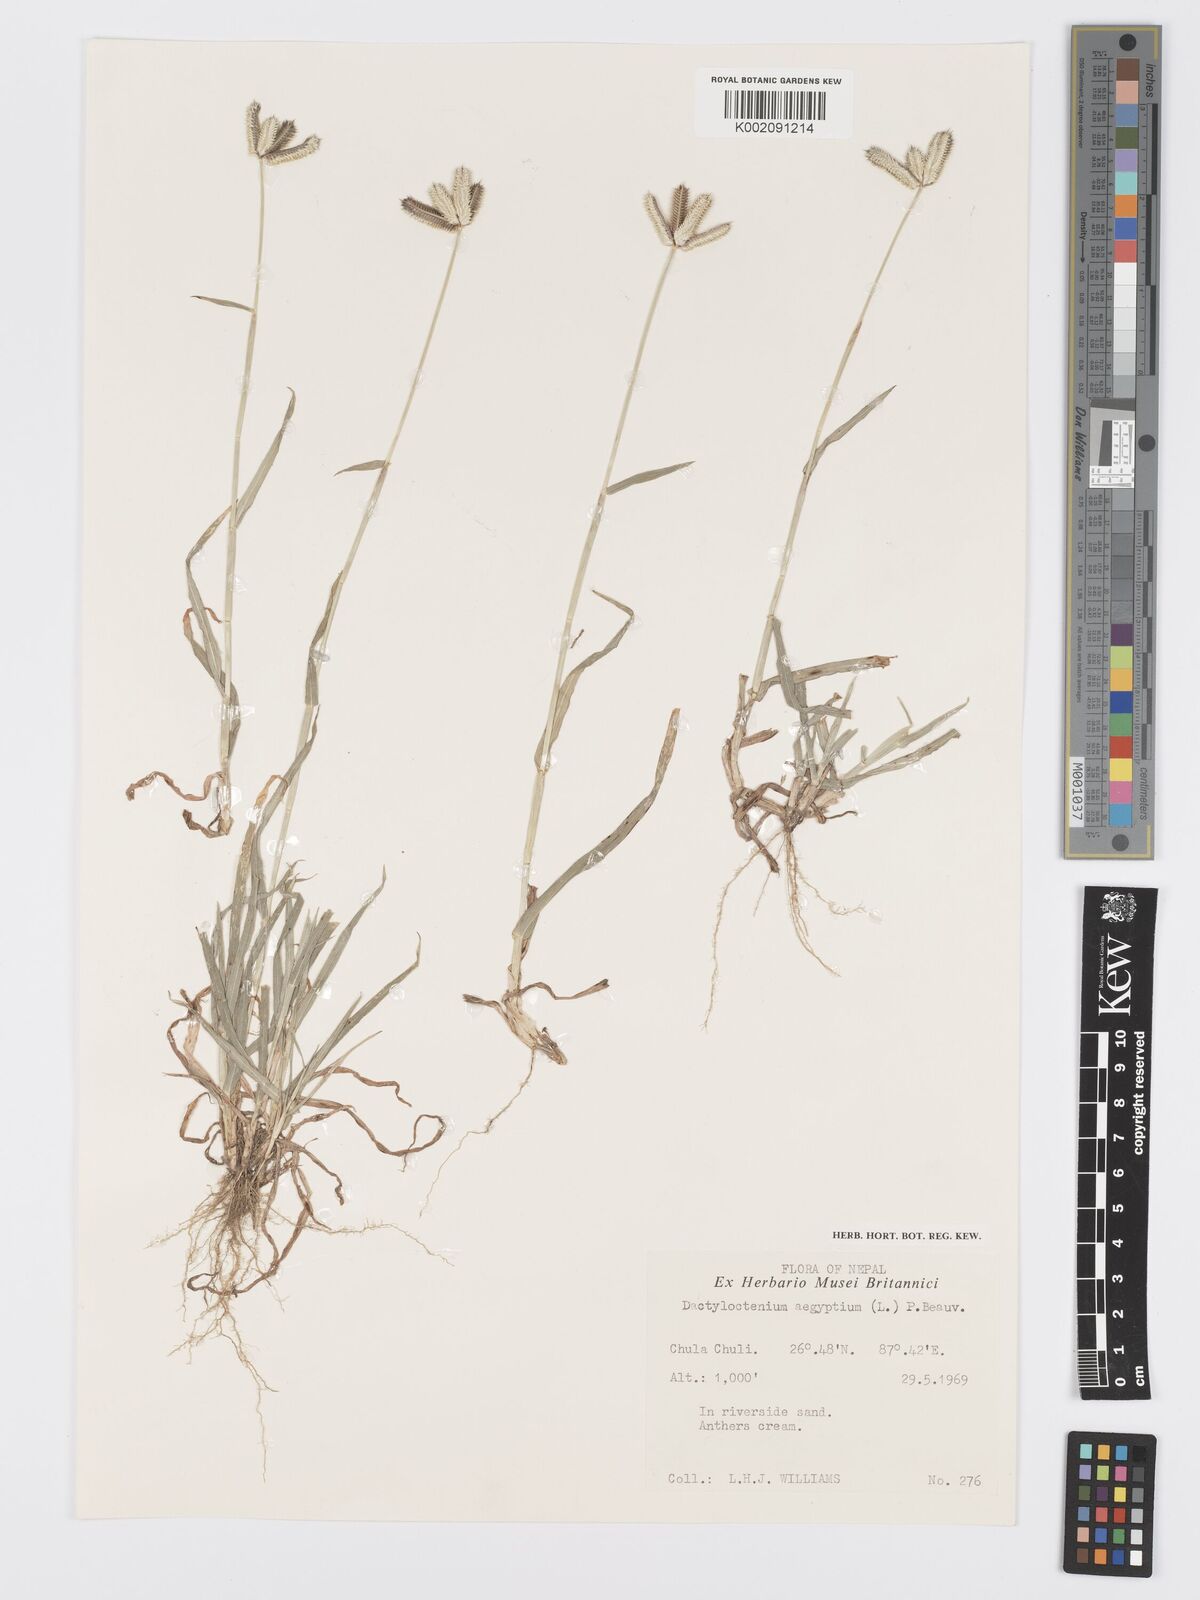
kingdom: Plantae
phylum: Tracheophyta
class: Liliopsida
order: Poales
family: Poaceae
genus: Dactyloctenium
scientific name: Dactyloctenium aegyptium
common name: Egyptian grass
